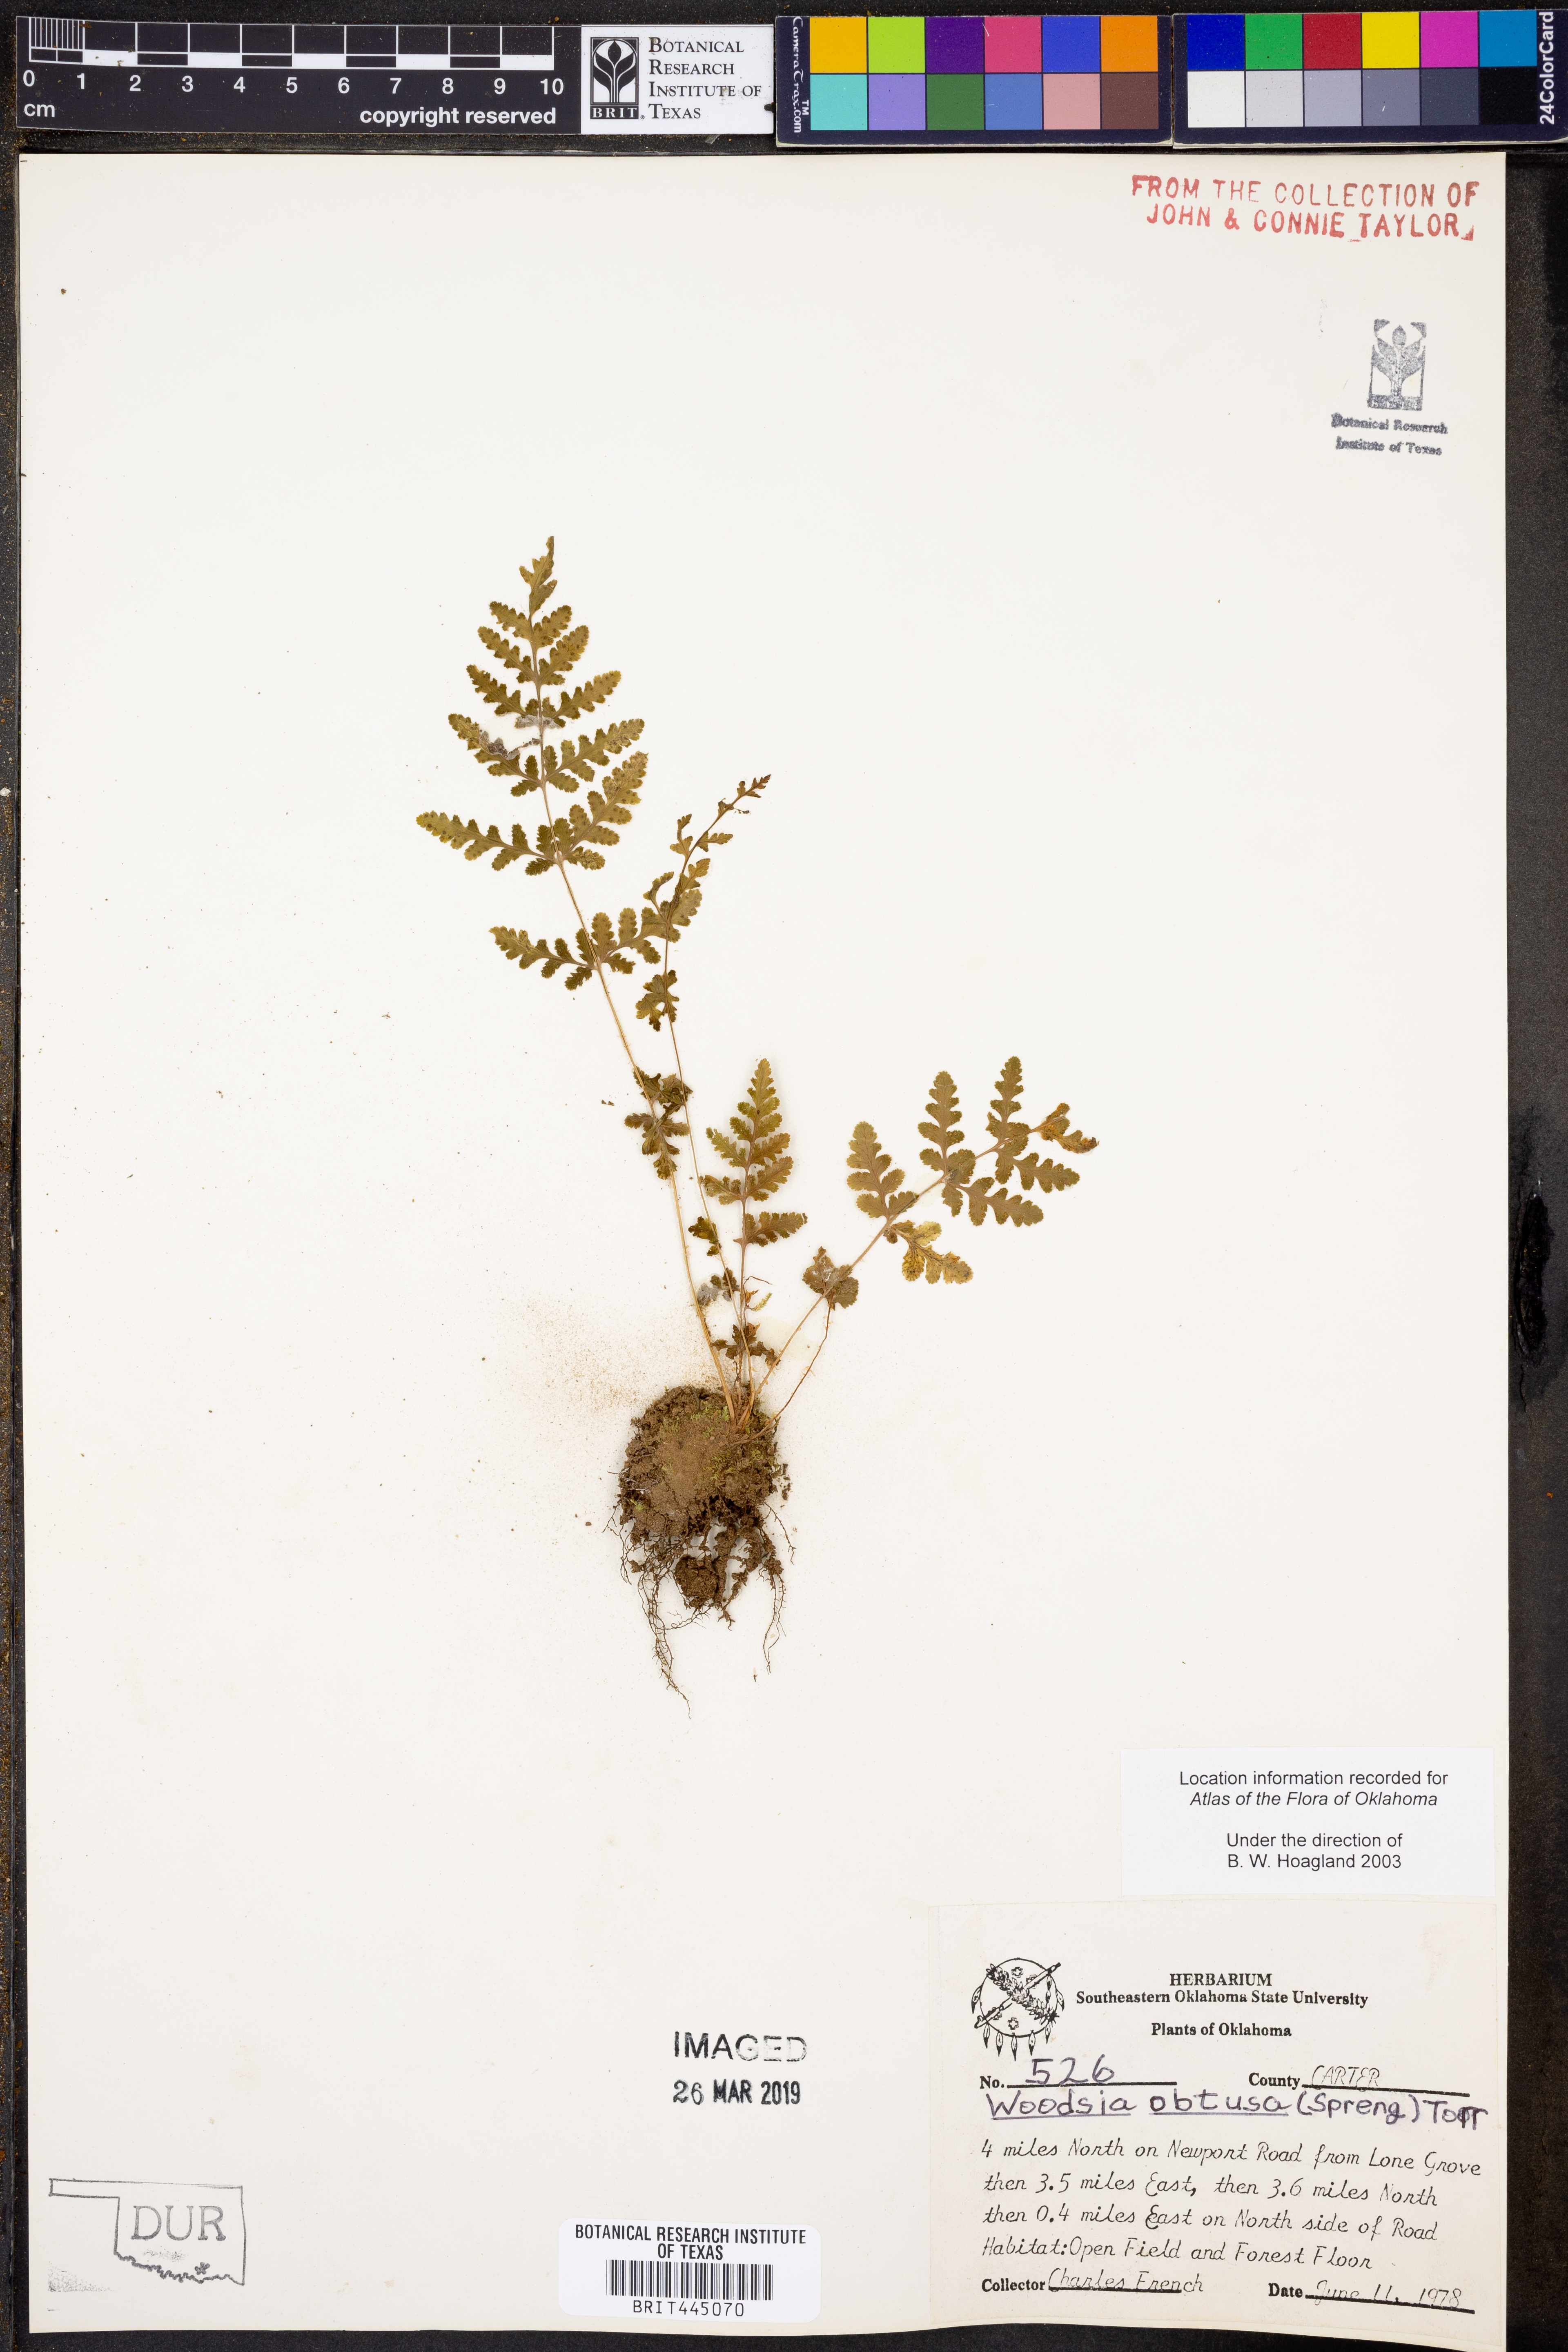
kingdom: Plantae
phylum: Tracheophyta
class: Polypodiopsida
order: Polypodiales
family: Woodsiaceae
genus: Physematium
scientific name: Physematium obtusum
